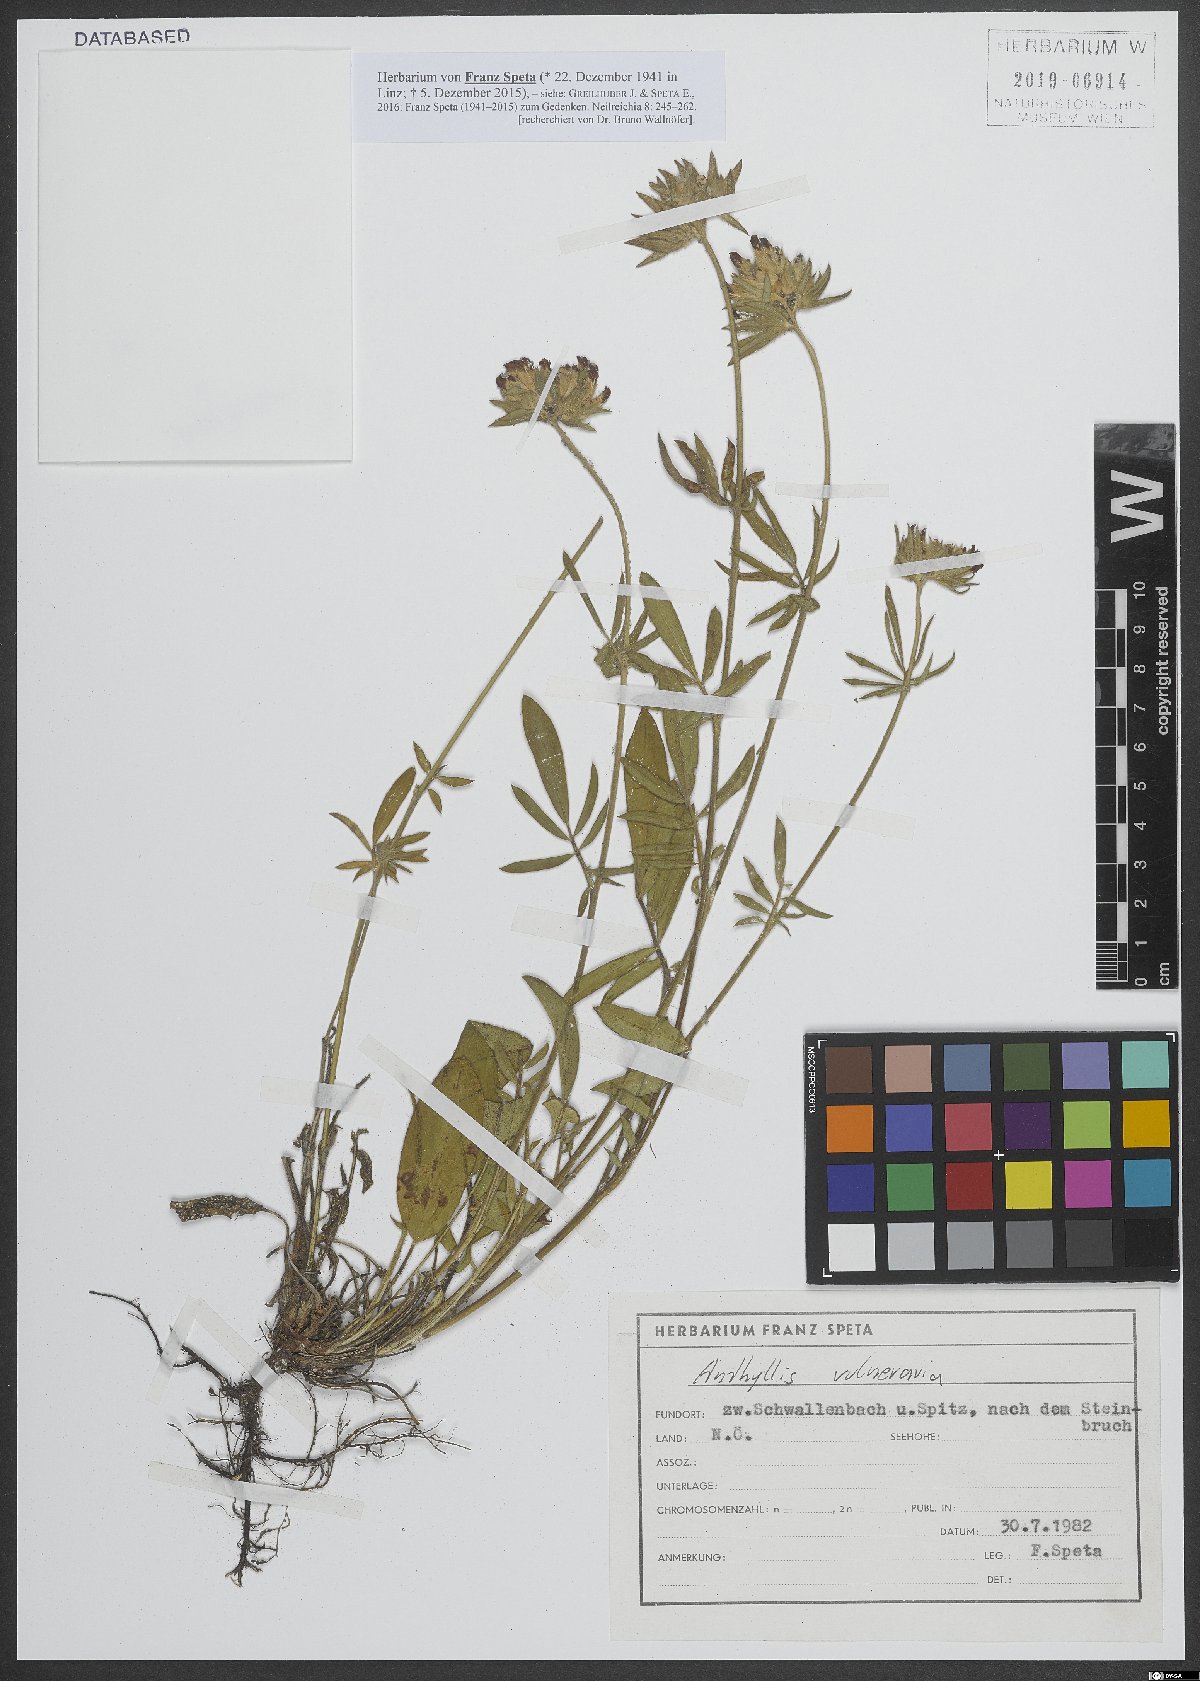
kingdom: Plantae
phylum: Tracheophyta
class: Magnoliopsida
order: Fabales
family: Fabaceae
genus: Anthyllis
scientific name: Anthyllis vulneraria
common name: Kidney vetch
